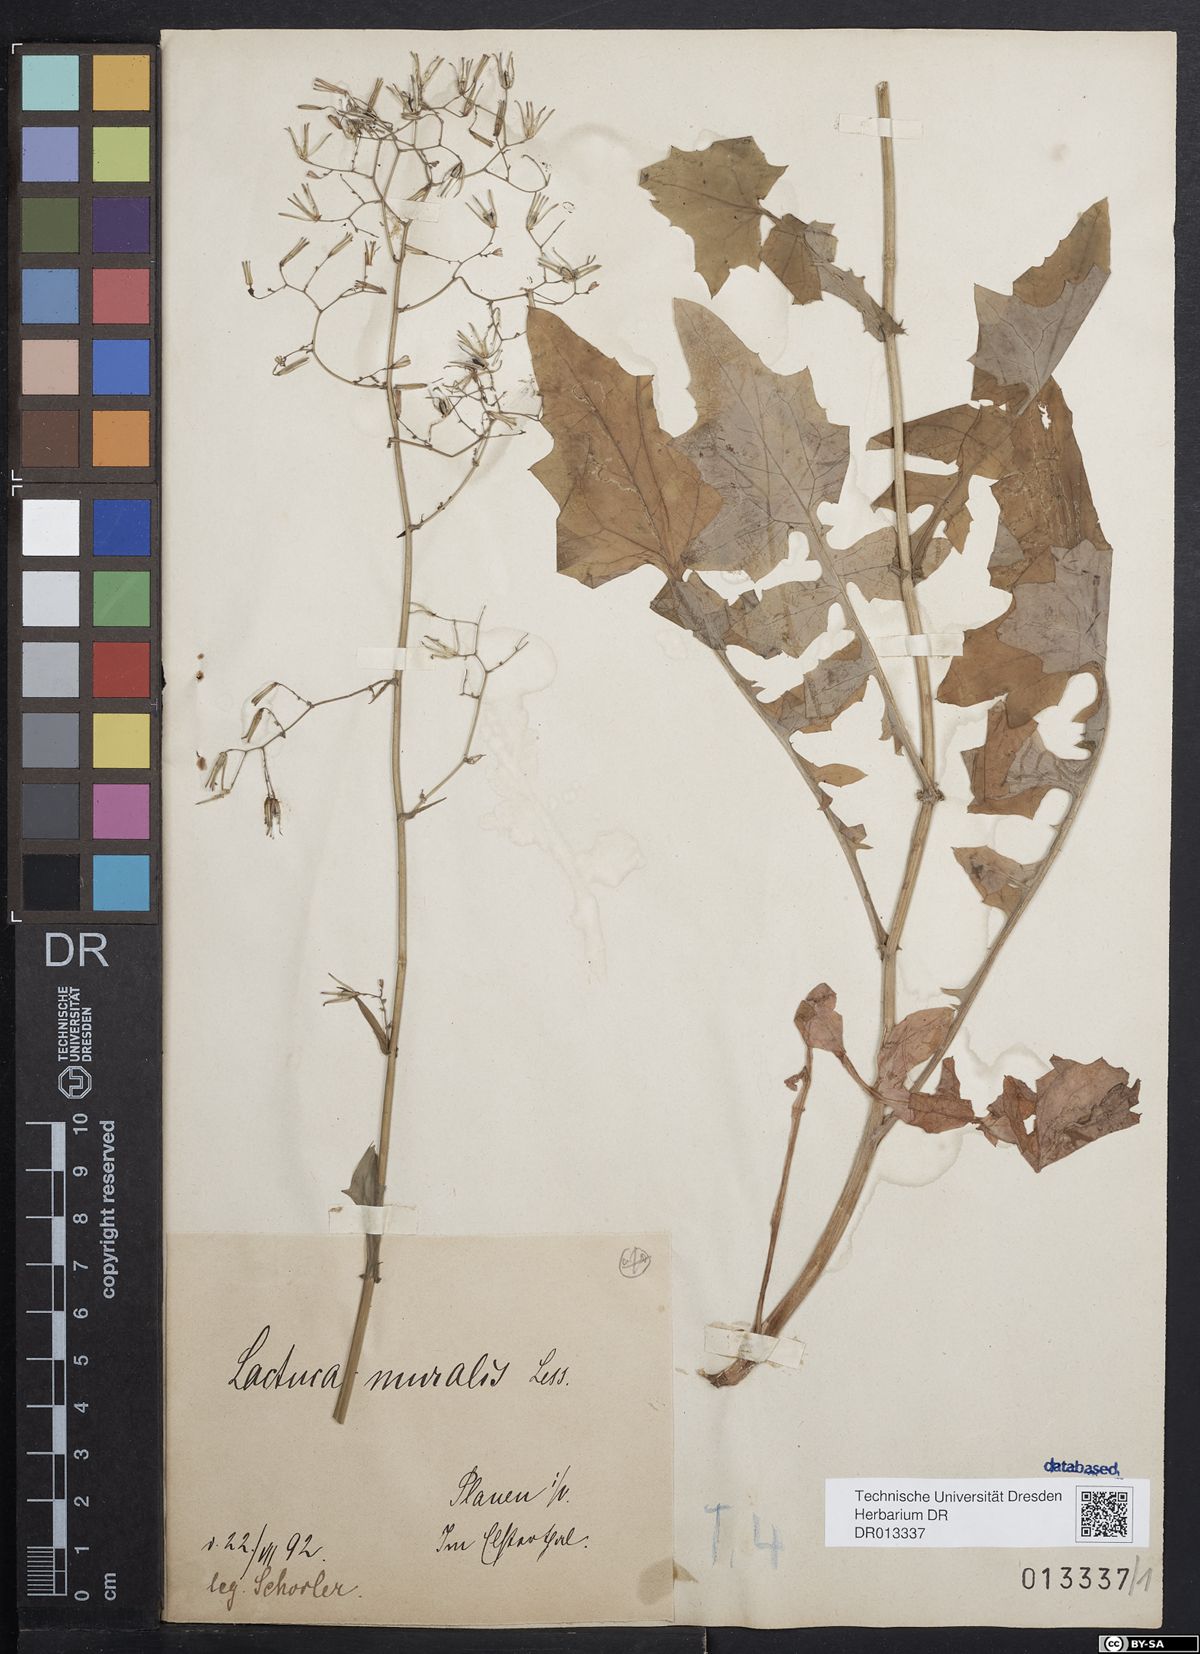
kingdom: Plantae
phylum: Tracheophyta
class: Magnoliopsida
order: Asterales
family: Asteraceae
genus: Mycelis
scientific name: Mycelis muralis
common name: Wall lettuce
